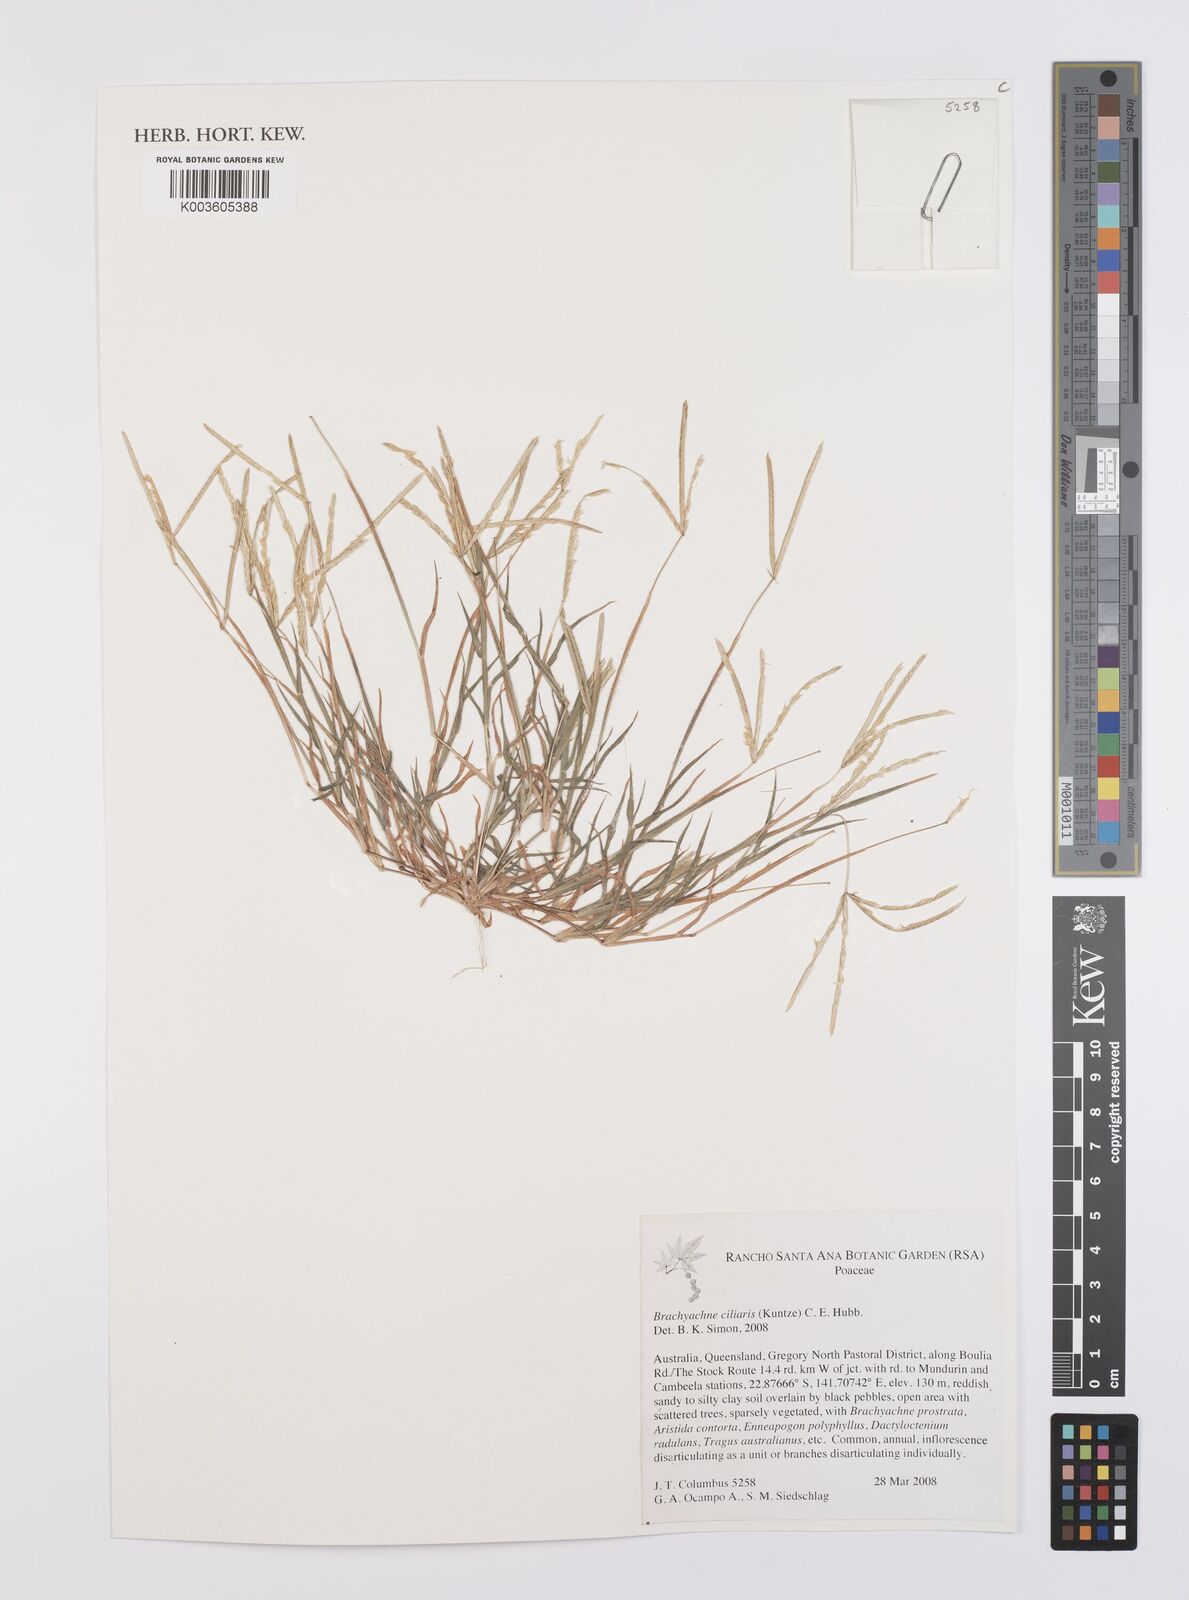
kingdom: Plantae
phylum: Tracheophyta
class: Liliopsida
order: Poales
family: Poaceae
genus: Cynodon
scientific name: Cynodon simonii
